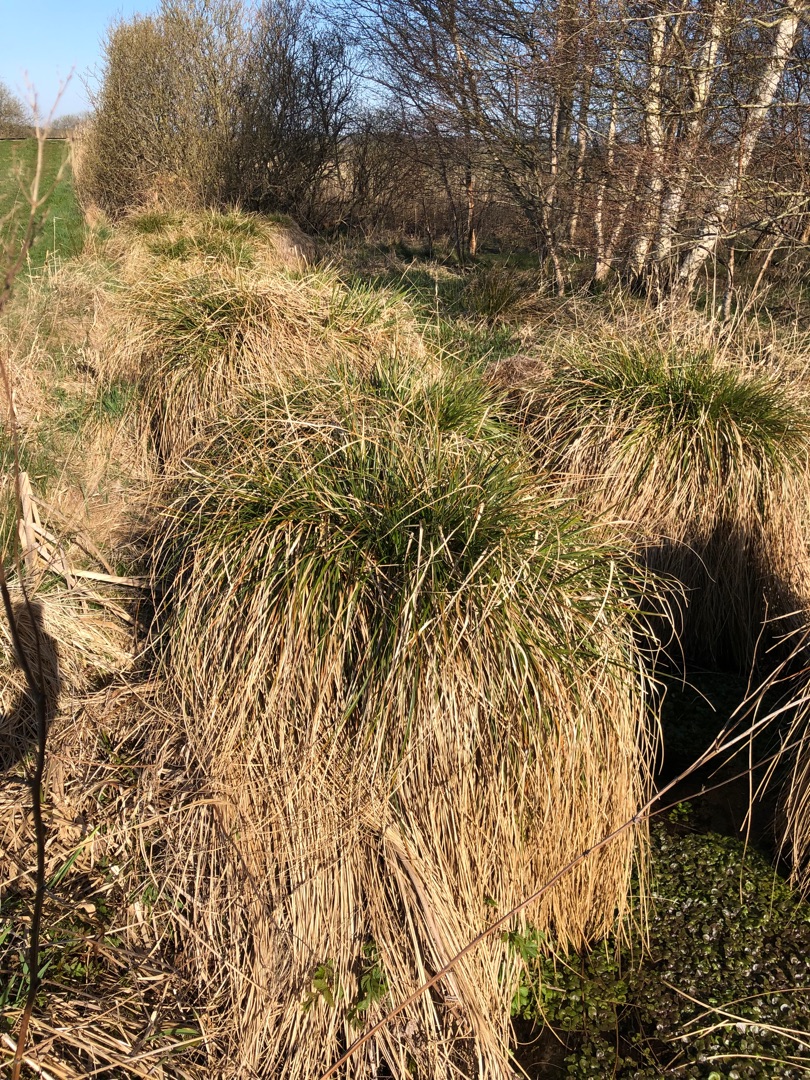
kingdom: Plantae
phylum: Tracheophyta
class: Liliopsida
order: Poales
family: Cyperaceae
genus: Carex
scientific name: Carex paniculata
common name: Top-star
